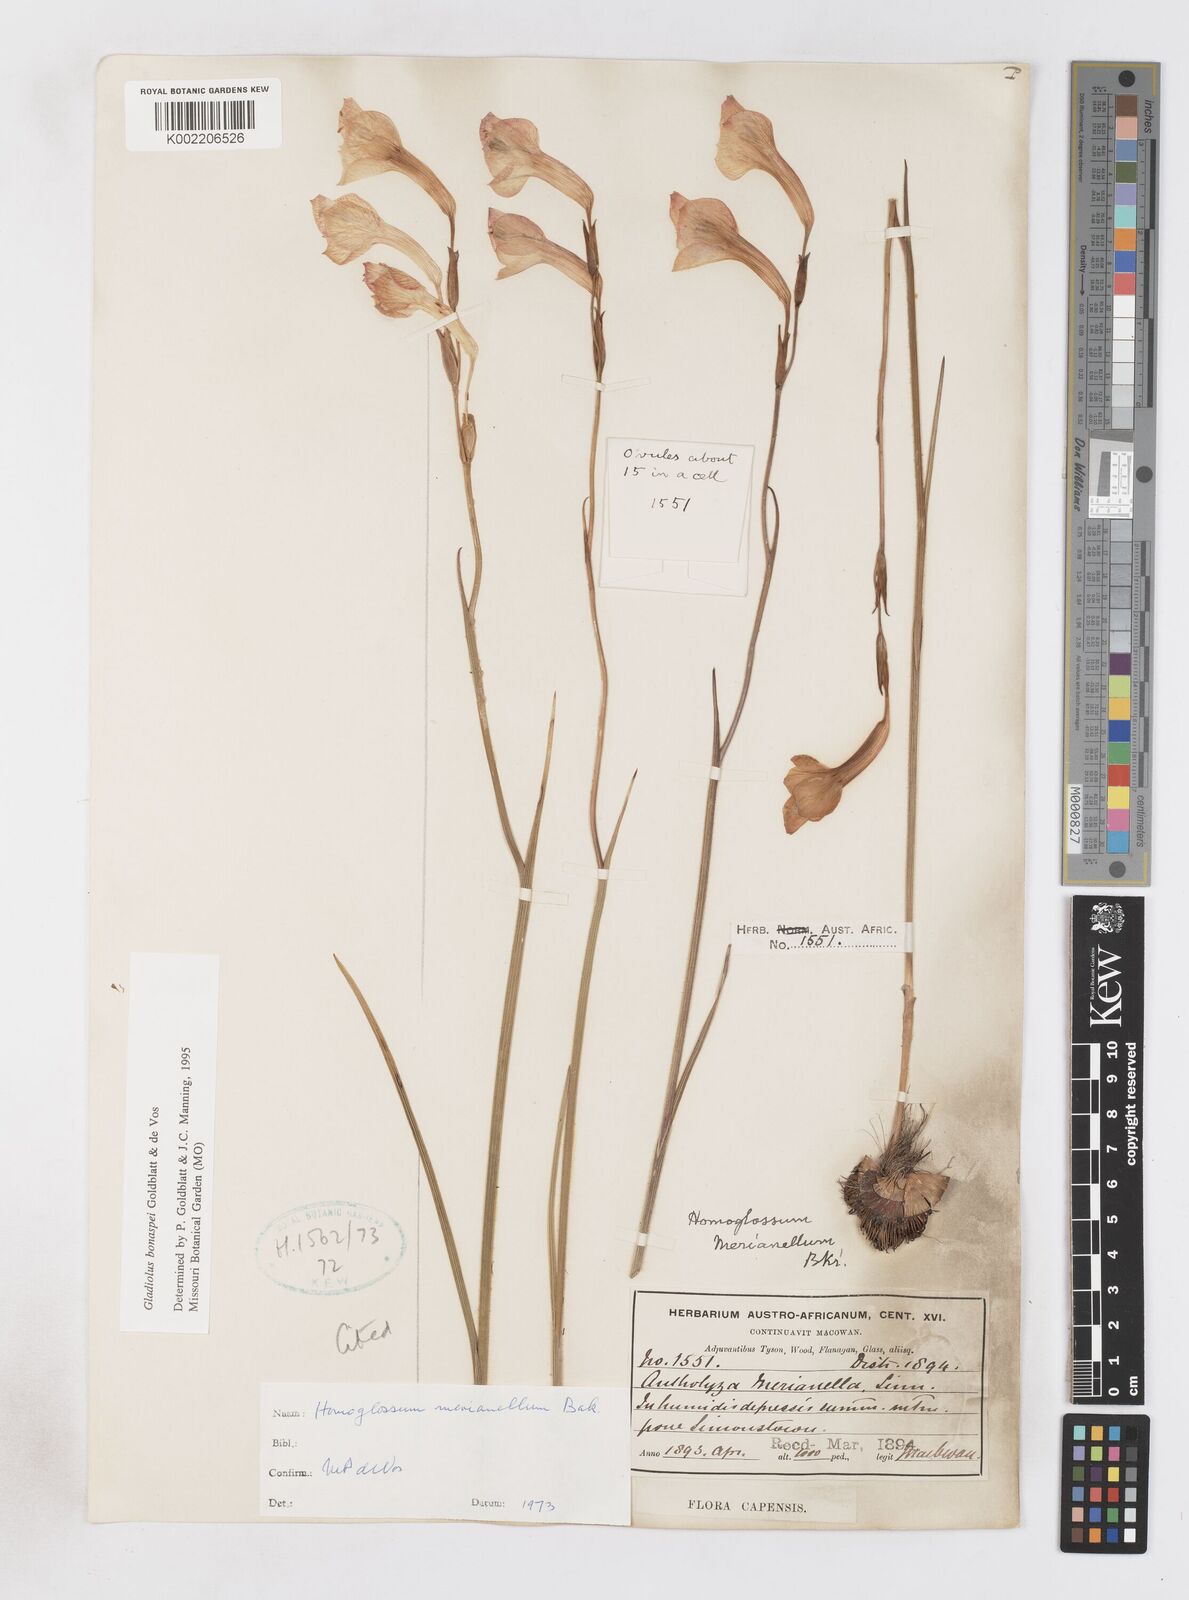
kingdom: Plantae
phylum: Tracheophyta
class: Liliopsida
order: Asparagales
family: Iridaceae
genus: Gladiolus
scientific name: Gladiolus merianellus
